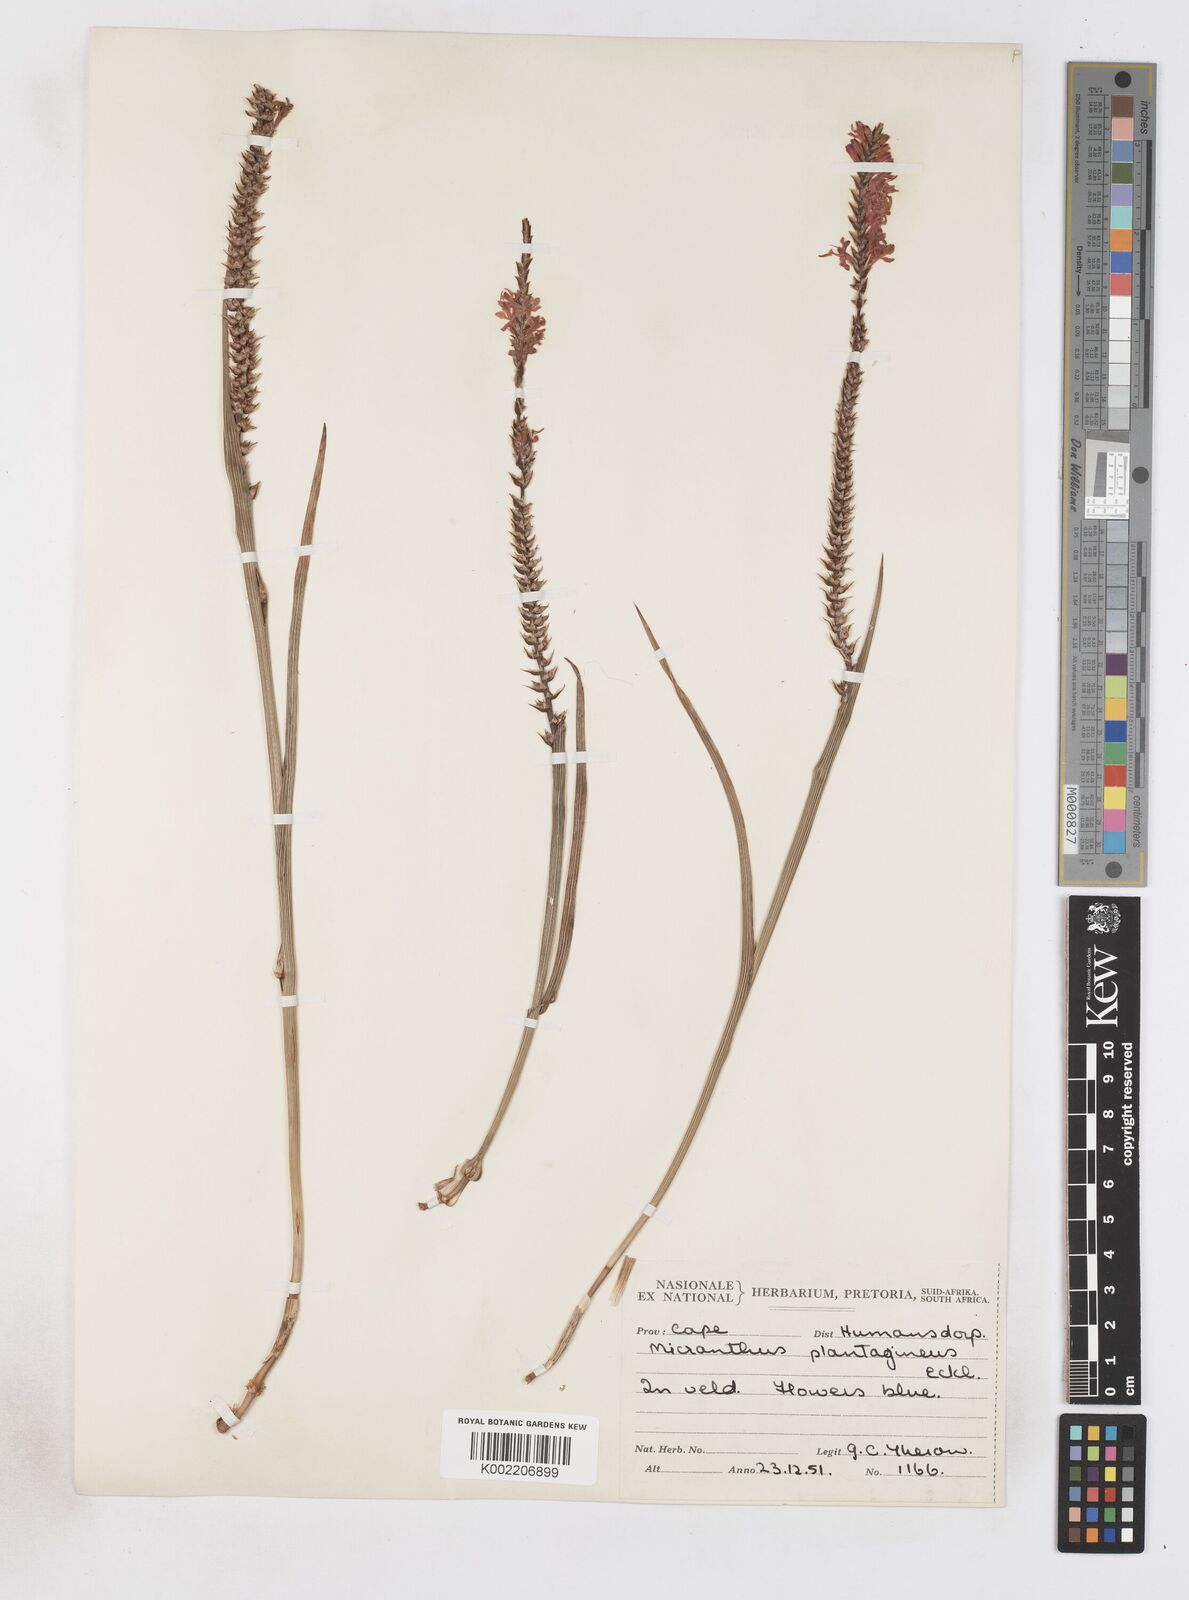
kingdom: Plantae
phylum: Tracheophyta
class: Liliopsida
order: Asparagales
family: Iridaceae
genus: Micranthus
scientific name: Micranthus plantagineus
